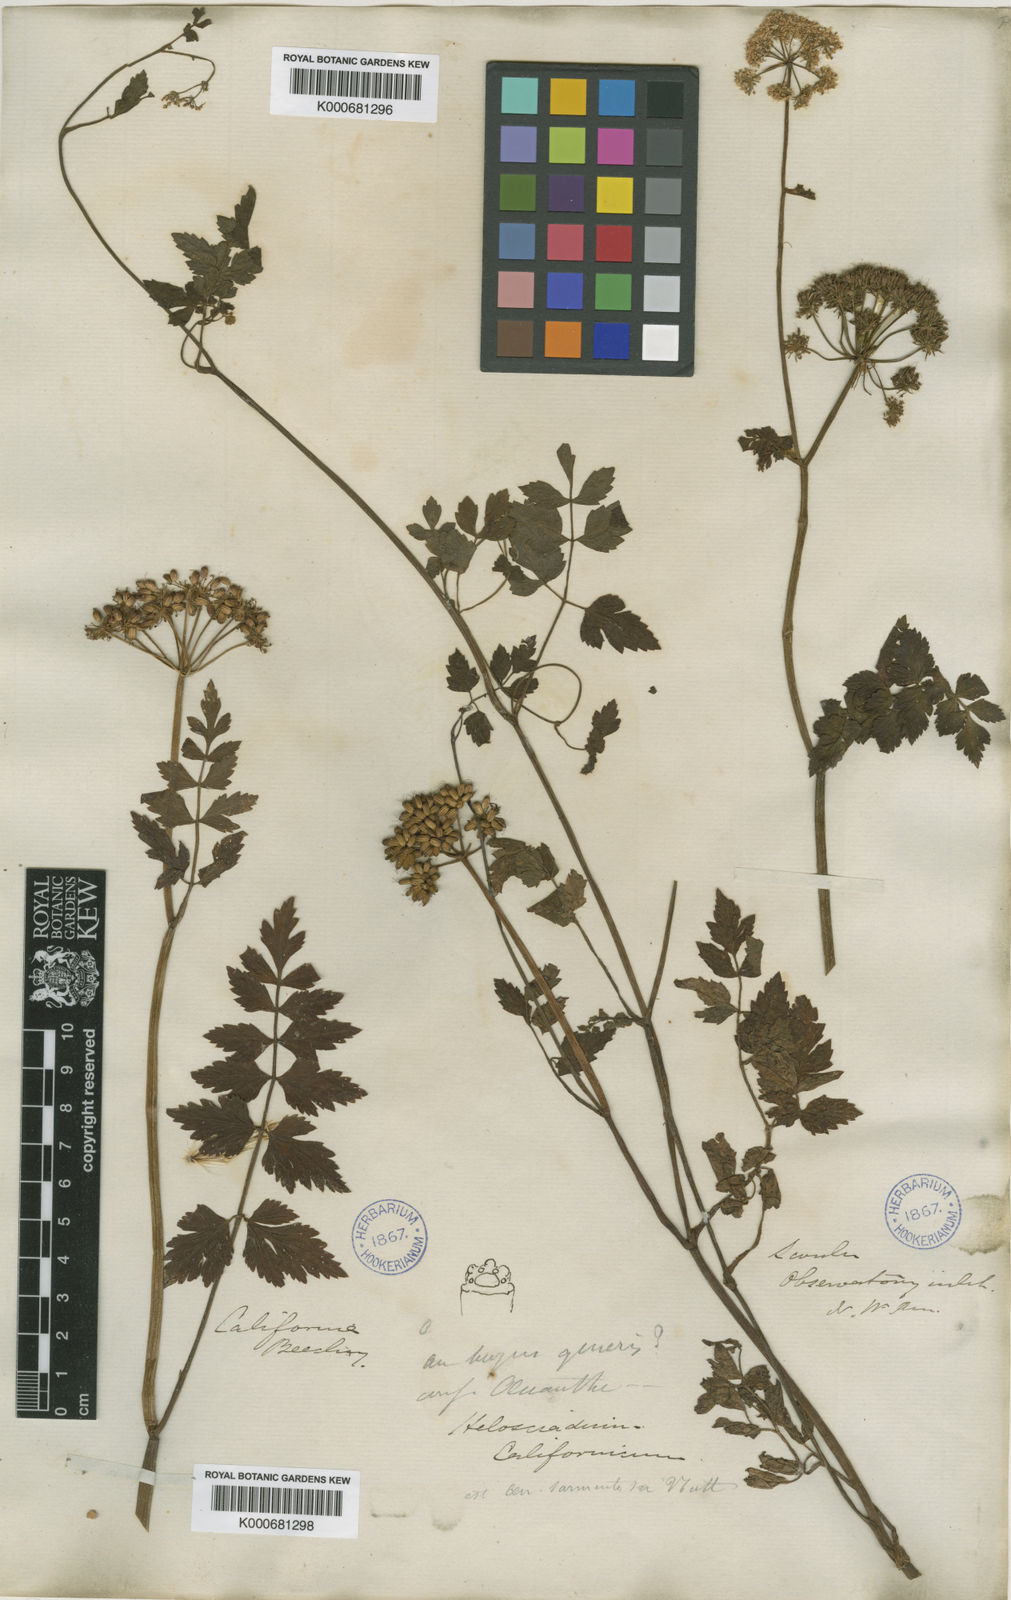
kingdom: Plantae
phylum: Tracheophyta
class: Magnoliopsida
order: Apiales
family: Apiaceae
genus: Oenanthe
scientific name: Oenanthe
